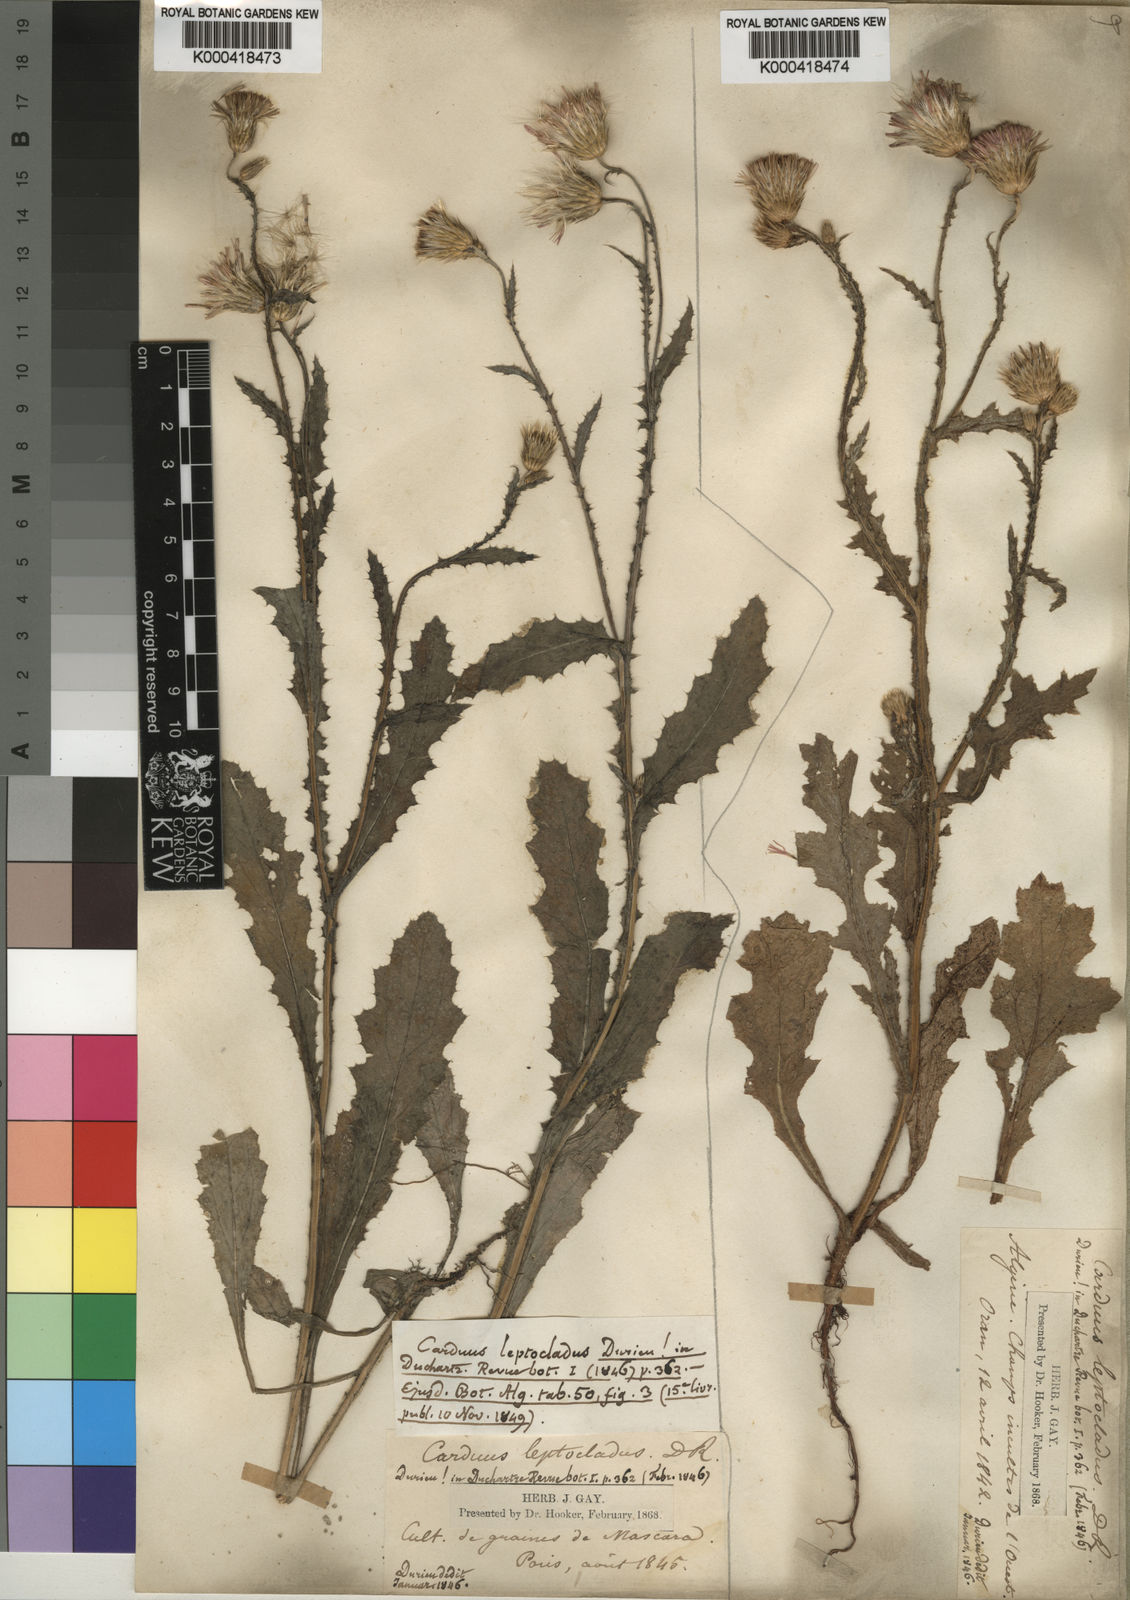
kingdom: Plantae
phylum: Tracheophyta
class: Magnoliopsida
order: Asterales
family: Asteraceae
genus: Carduus
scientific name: Carduus
